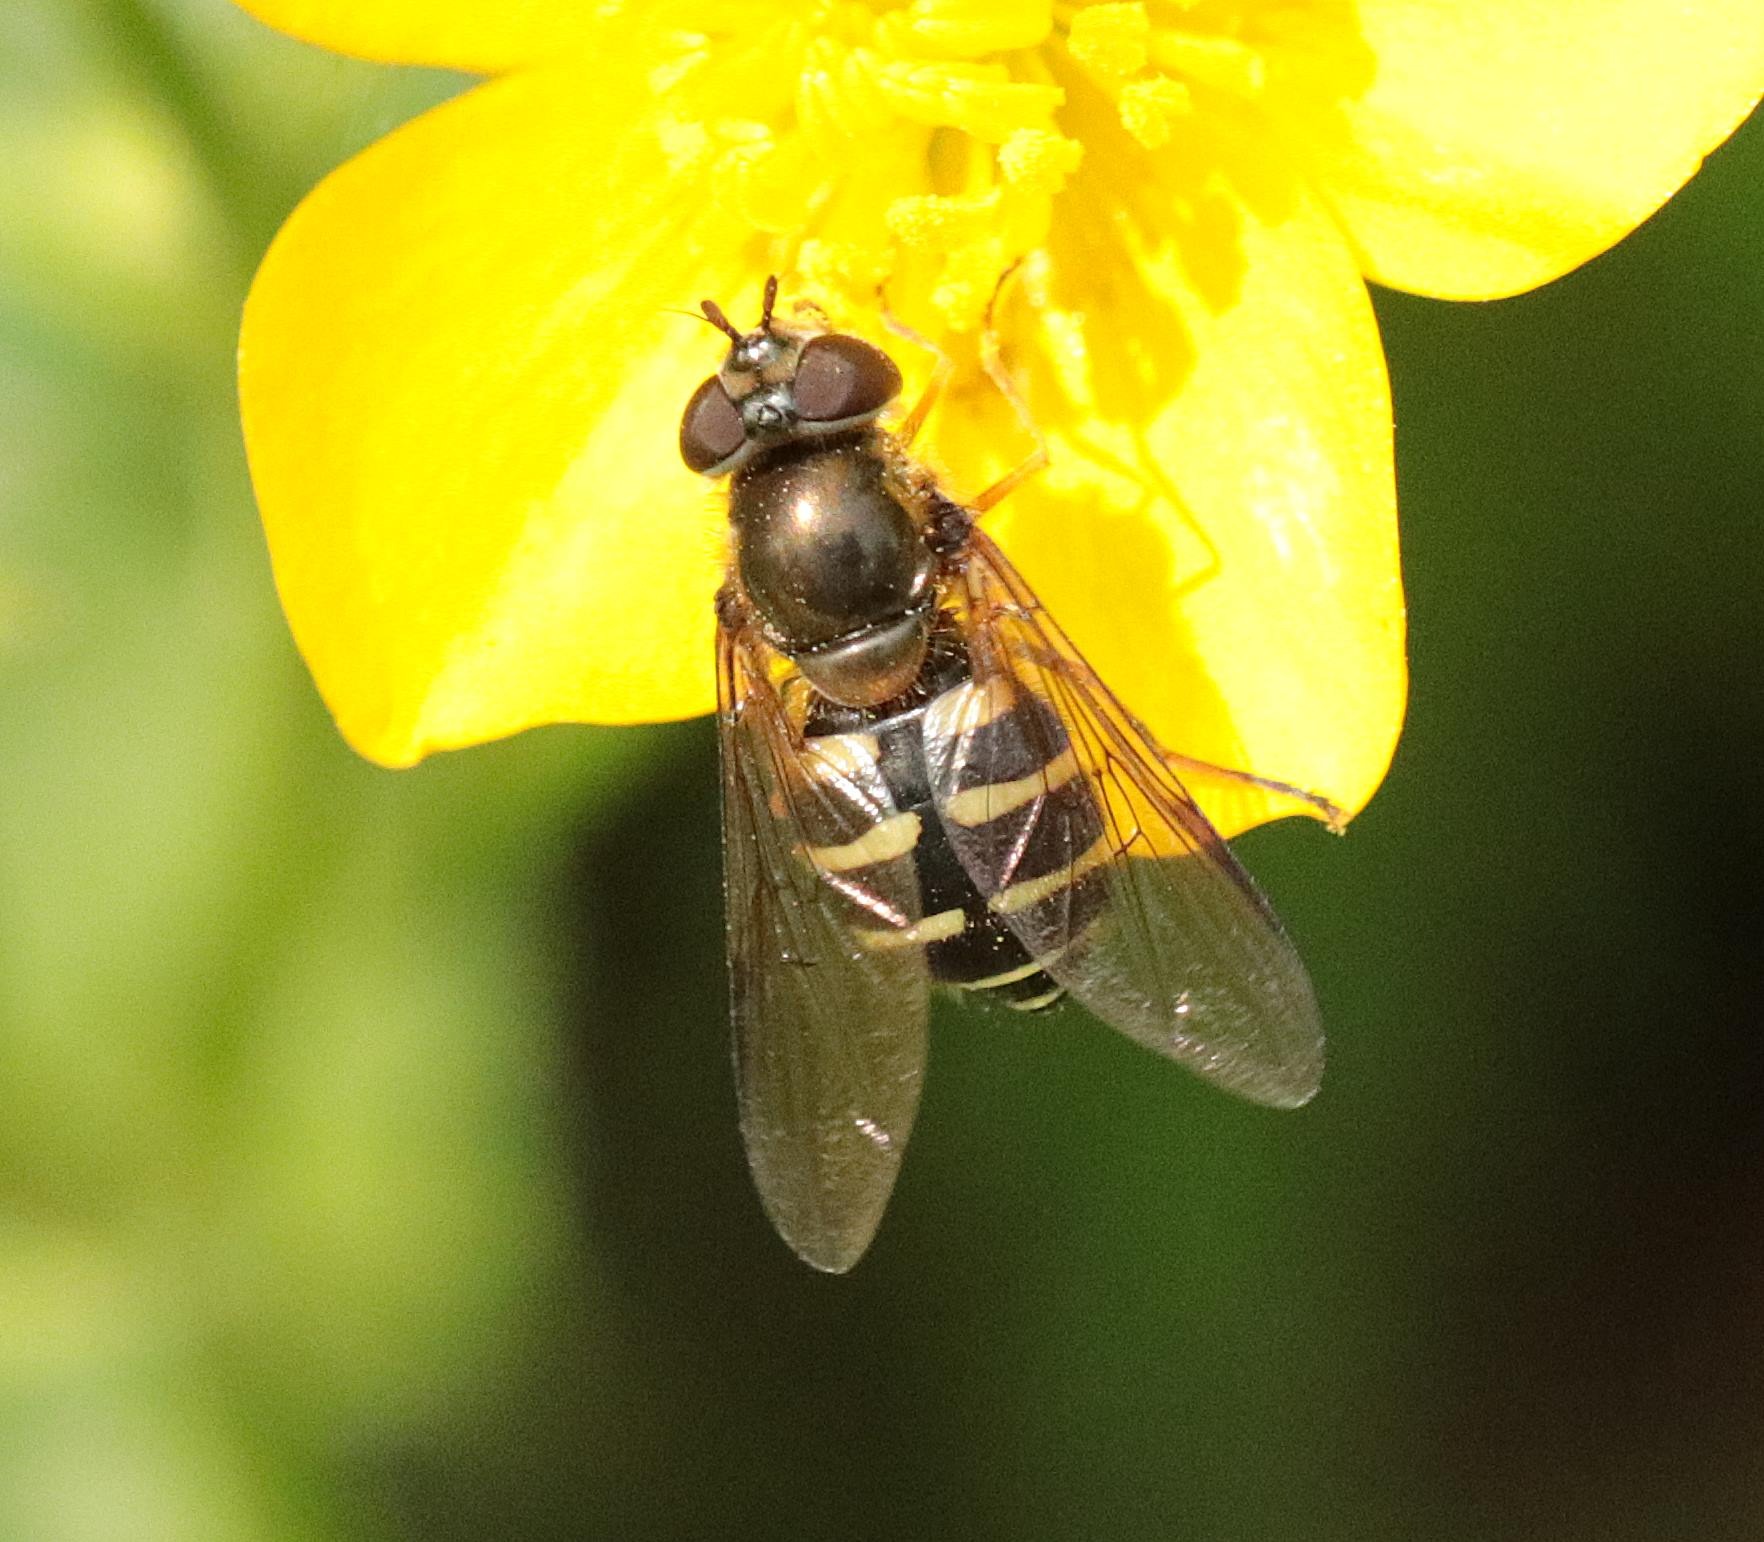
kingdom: Animalia
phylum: Arthropoda
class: Insecta
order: Diptera
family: Syrphidae
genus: Dasysyrphus
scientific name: Dasysyrphus venustus
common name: Smuk skovsvirreflue
